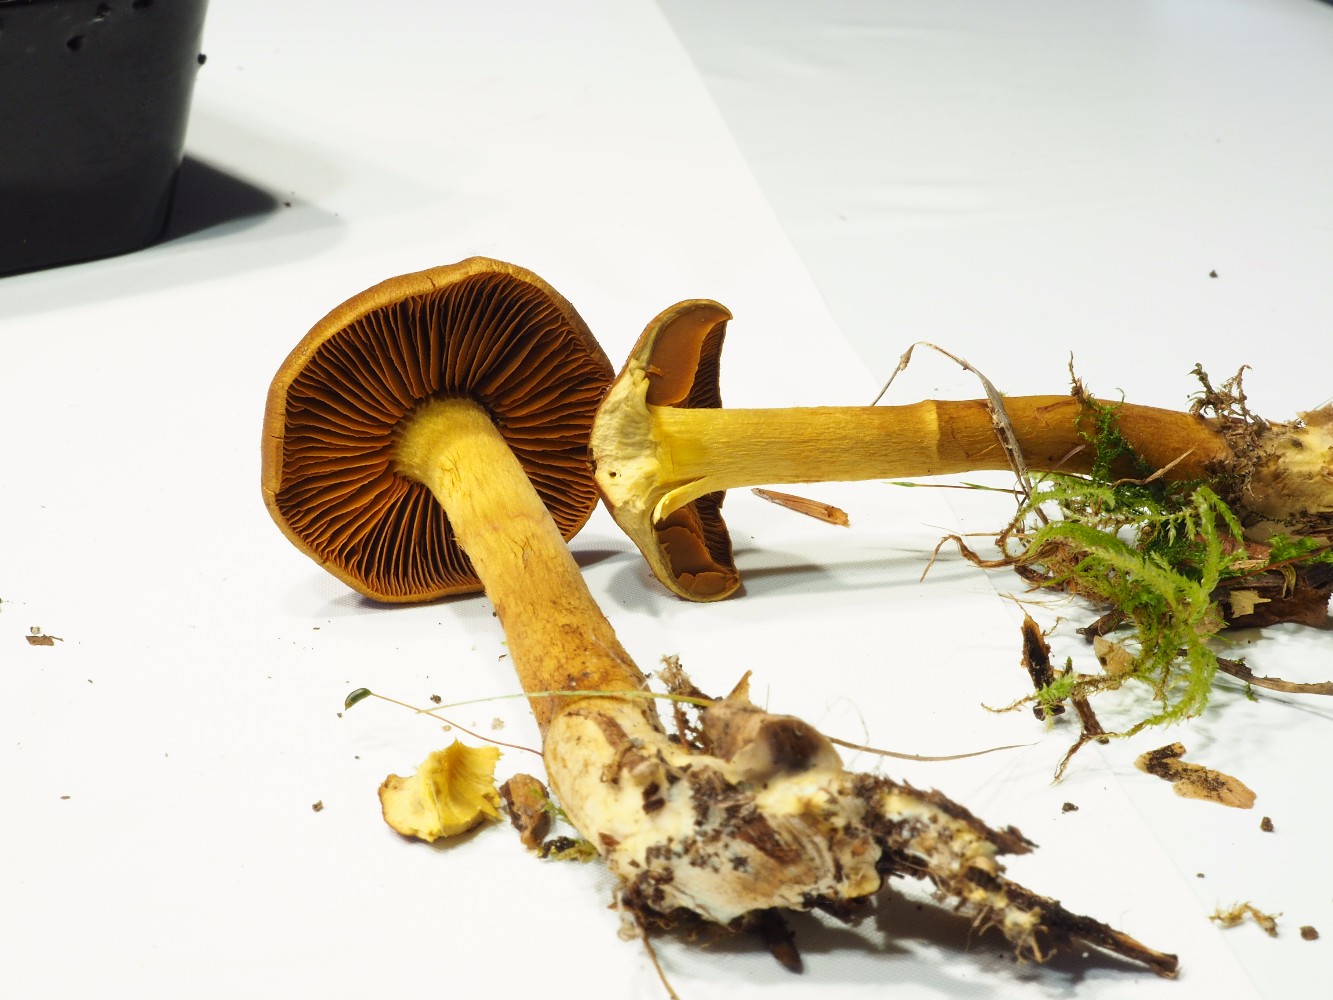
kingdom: Fungi
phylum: Basidiomycota
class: Agaricomycetes
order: Agaricales
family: Cortinariaceae
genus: Cortinarius
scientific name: Cortinarius malicorius
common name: grønkødet slørhat
